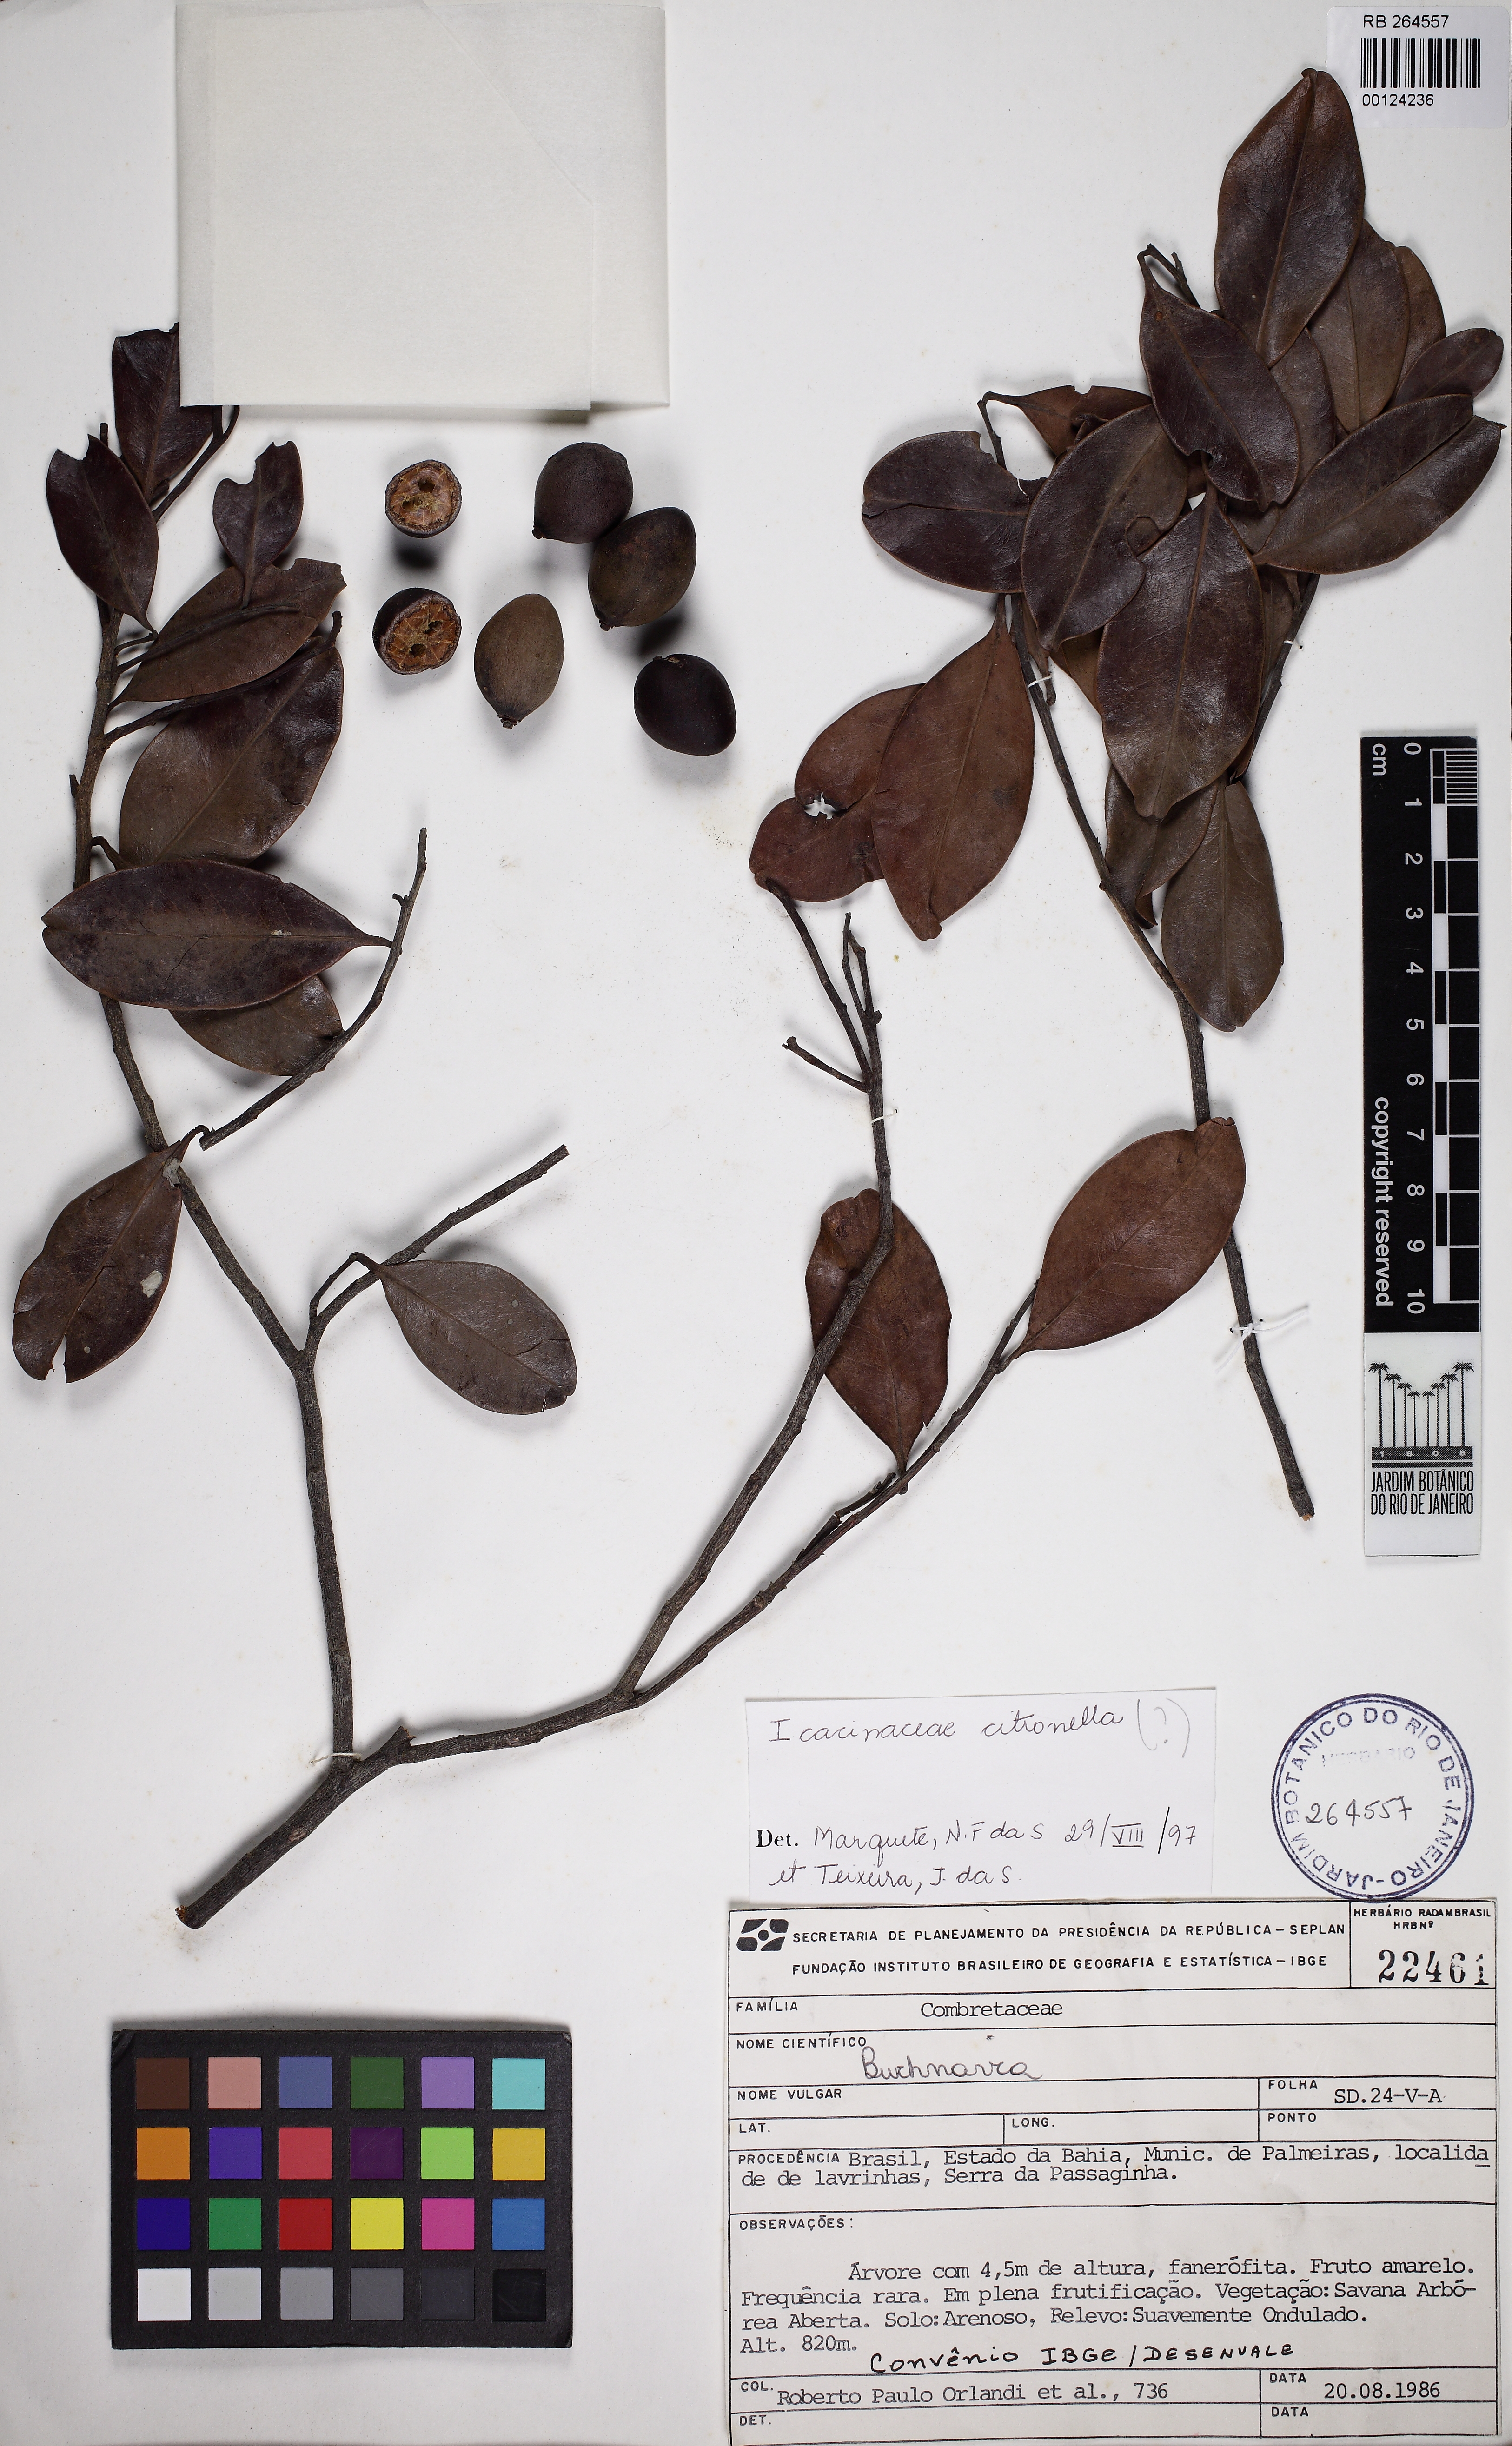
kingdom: Plantae
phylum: Tracheophyta
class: Magnoliopsida
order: Cardiopteridales
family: Cardiopteridaceae
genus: Citronella
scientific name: Citronella
